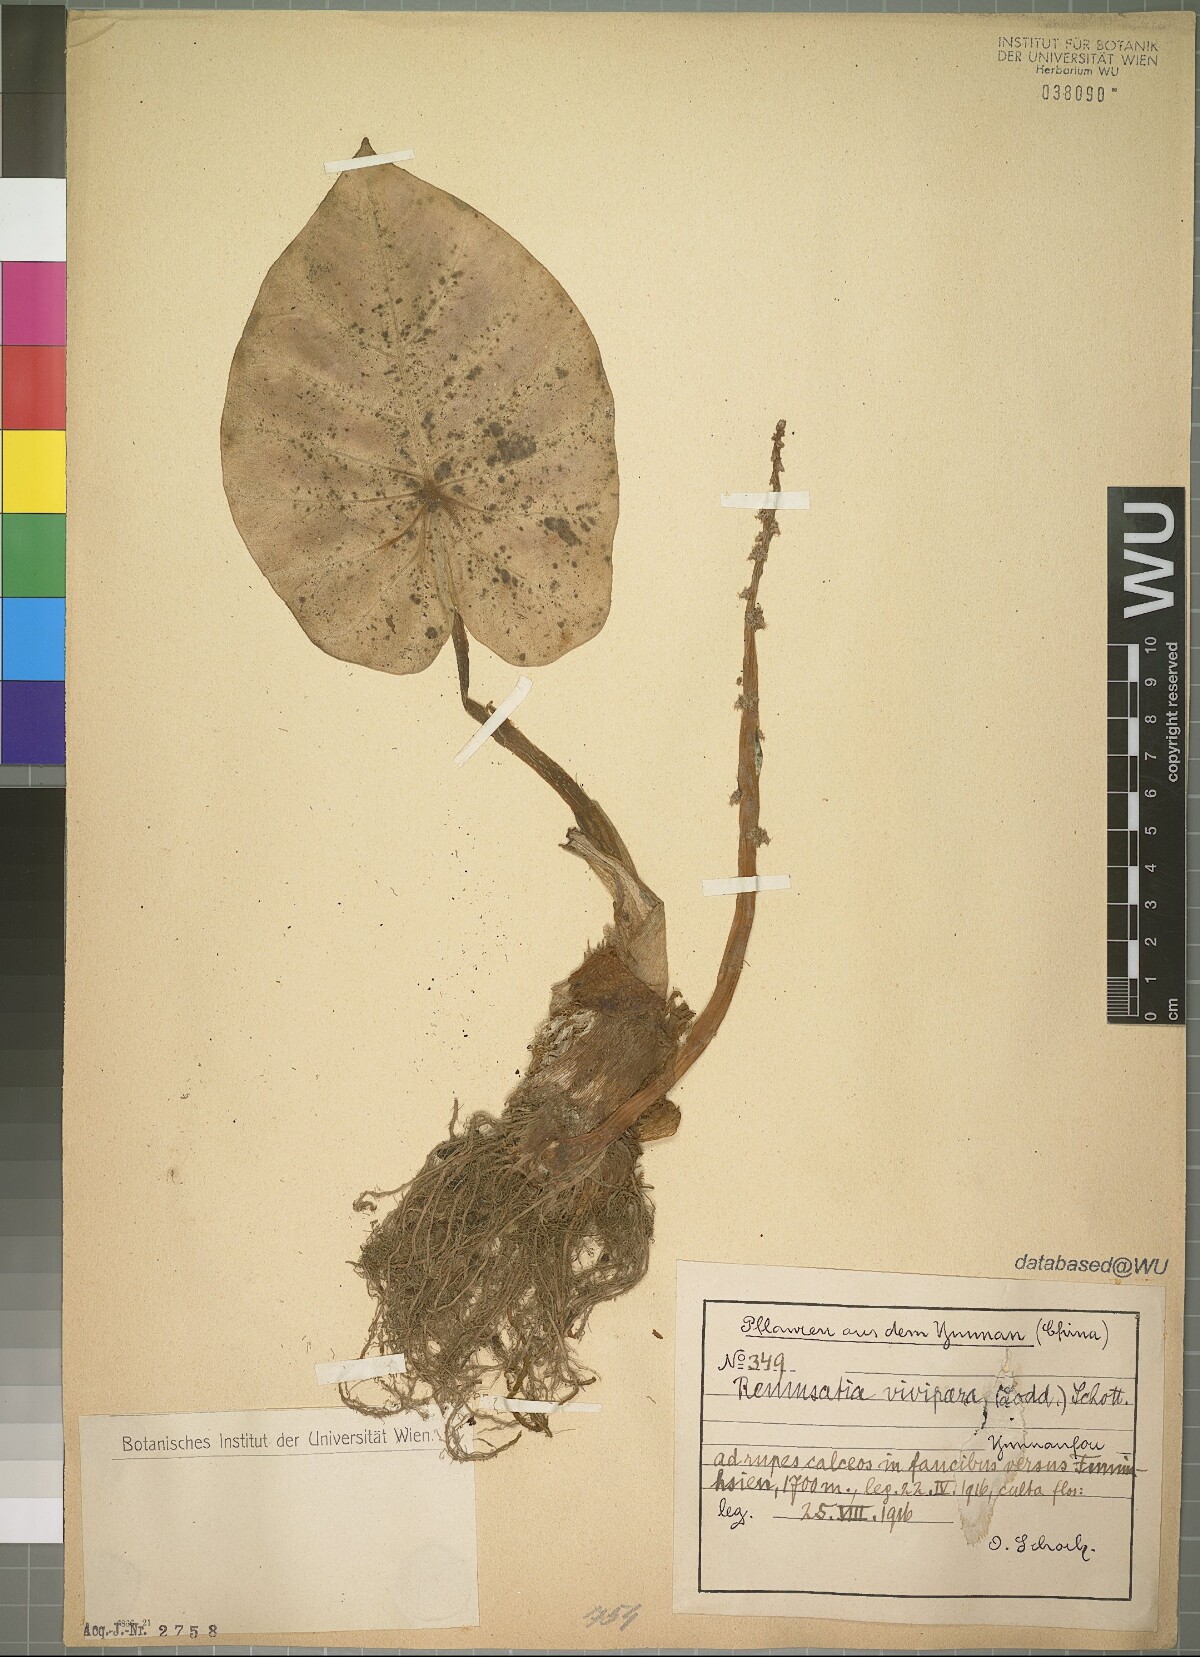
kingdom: Plantae
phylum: Tracheophyta
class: Liliopsida
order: Alismatales
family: Araceae
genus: Remusatia
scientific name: Remusatia vivipara
